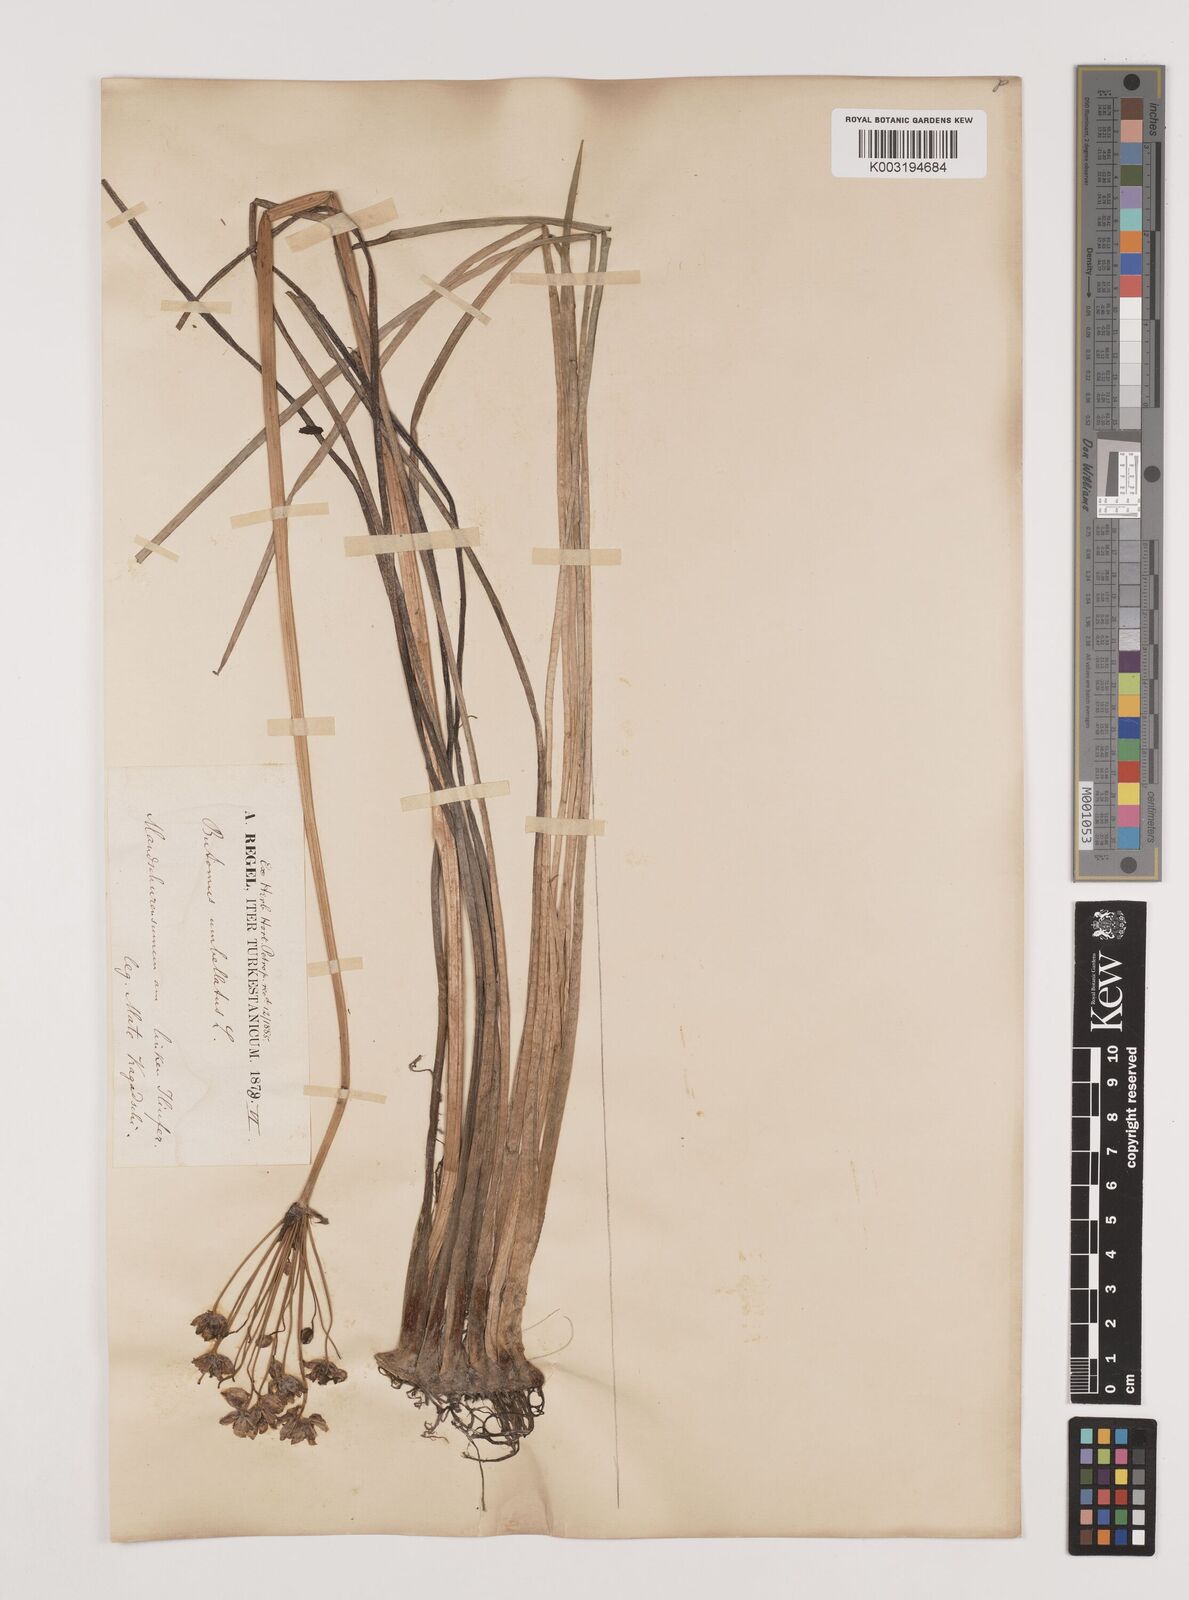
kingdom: Plantae
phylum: Tracheophyta
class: Liliopsida
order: Alismatales
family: Butomaceae
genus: Butomus
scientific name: Butomus umbellatus
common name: Flowering-rush
